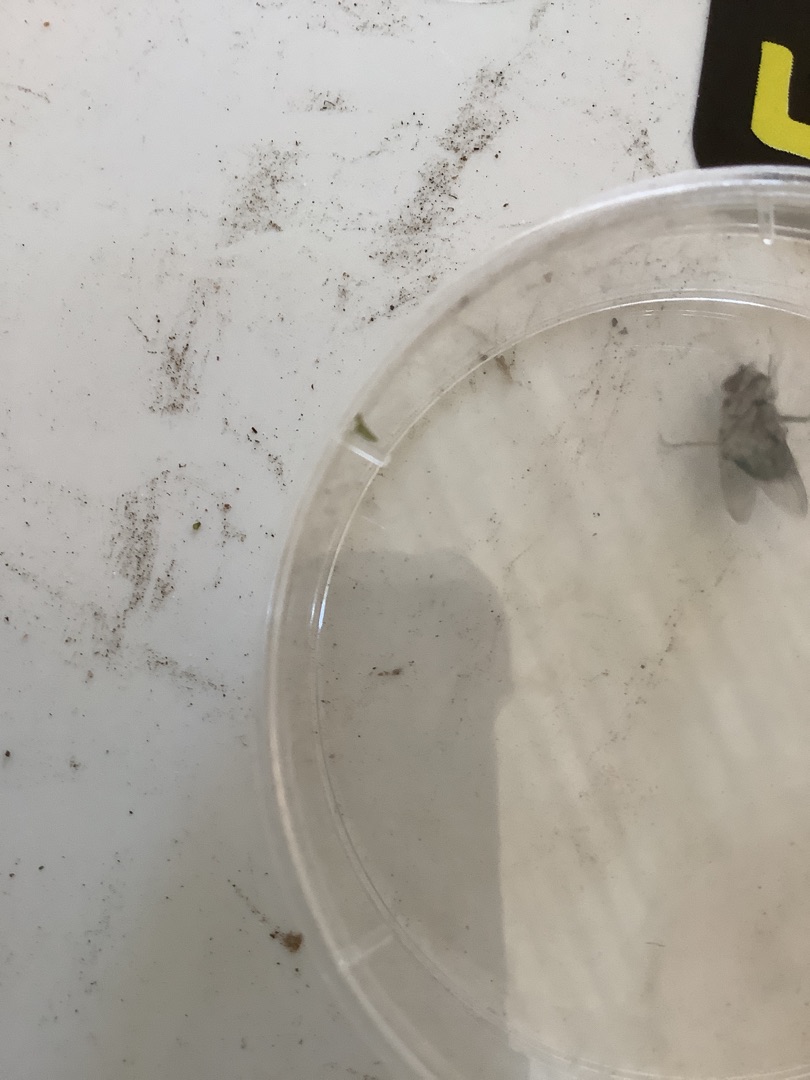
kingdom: Animalia
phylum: Arthropoda
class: Insecta
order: Diptera
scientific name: Diptera
